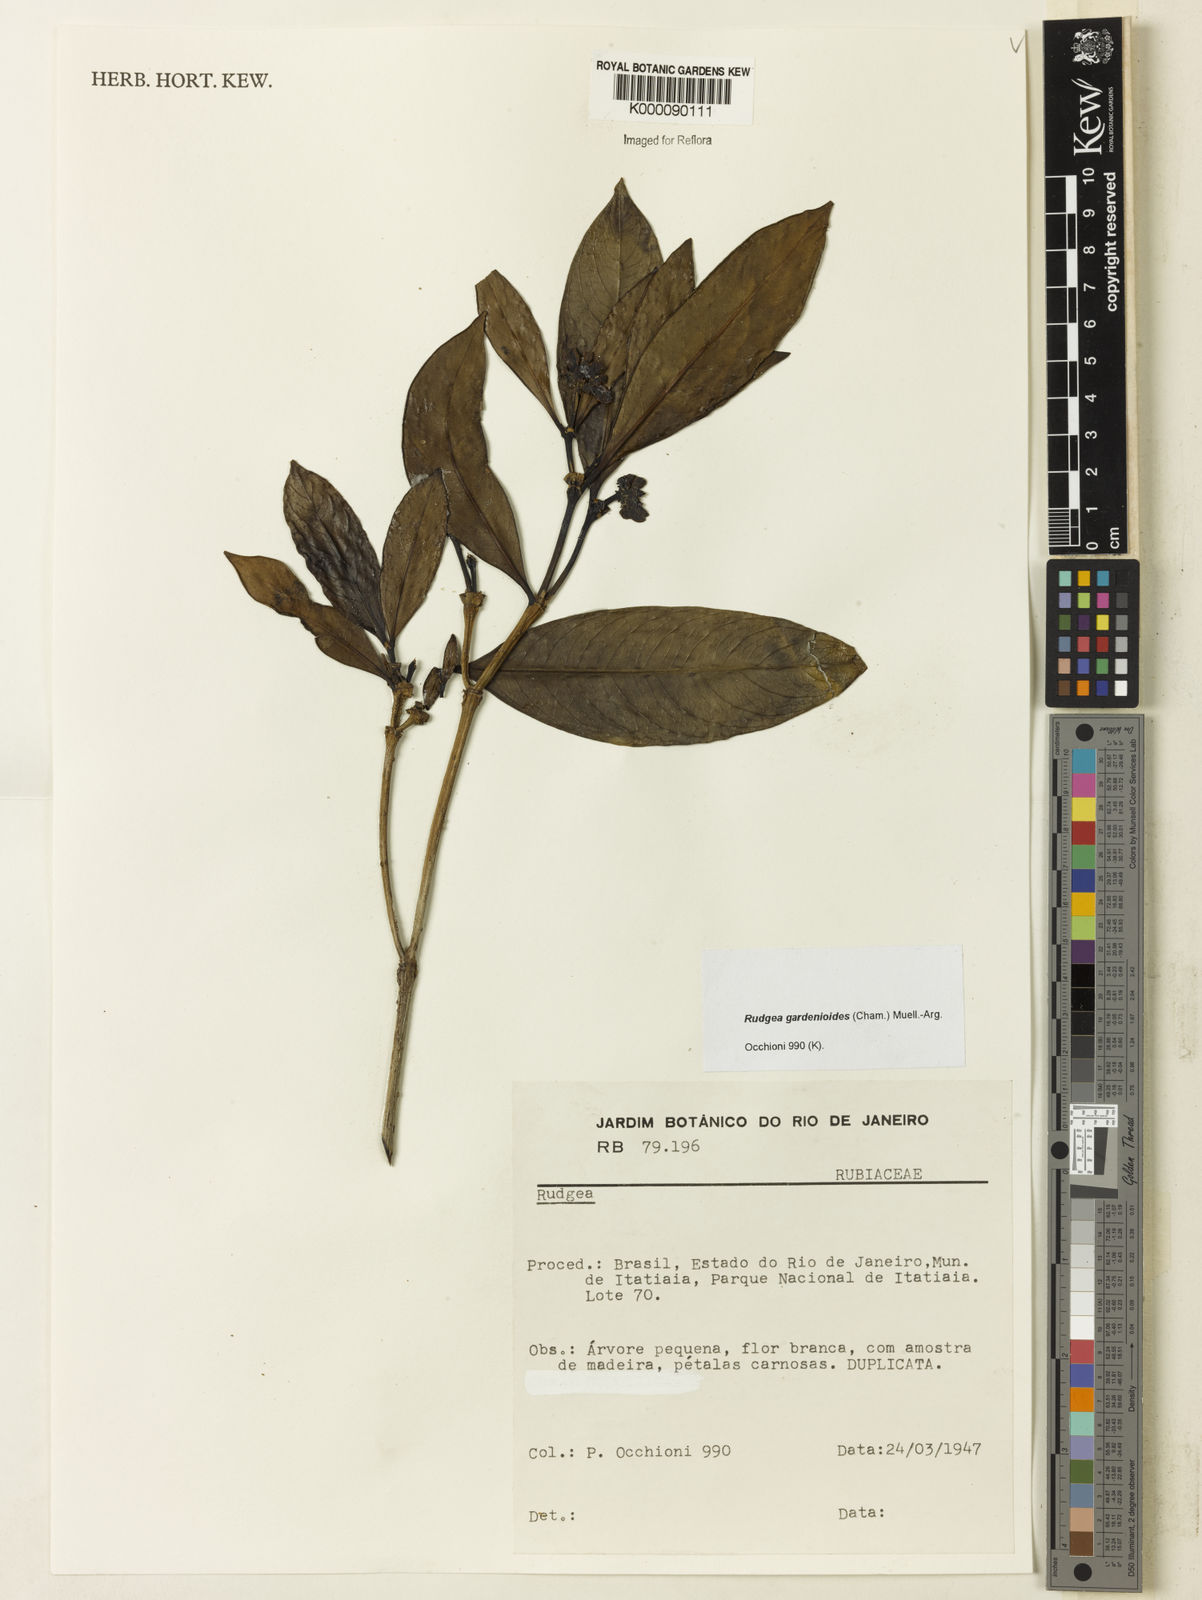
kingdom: Plantae
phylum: Tracheophyta
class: Magnoliopsida
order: Gentianales
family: Rubiaceae
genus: Rudgea
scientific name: Rudgea gardenioides
